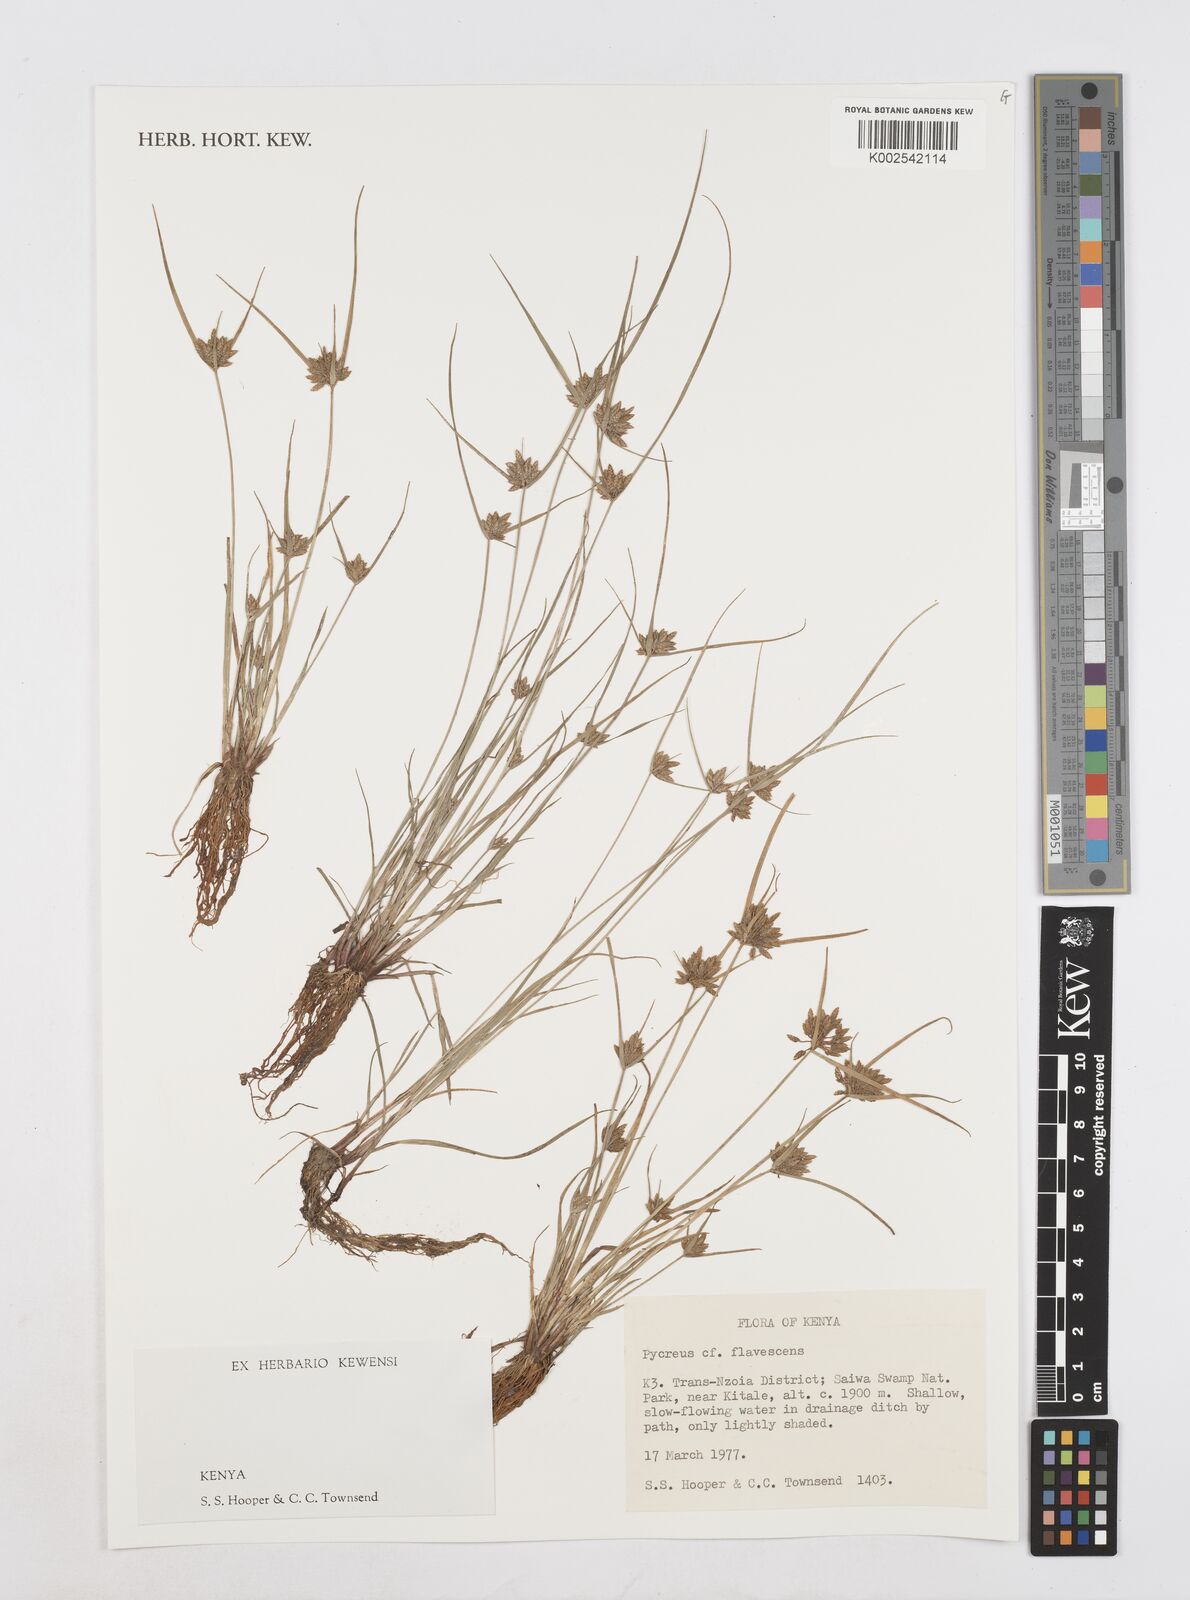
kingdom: Plantae
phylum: Tracheophyta
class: Liliopsida
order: Poales
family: Cyperaceae
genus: Cyperus
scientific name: Cyperus flavescens
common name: Yellow galingale
